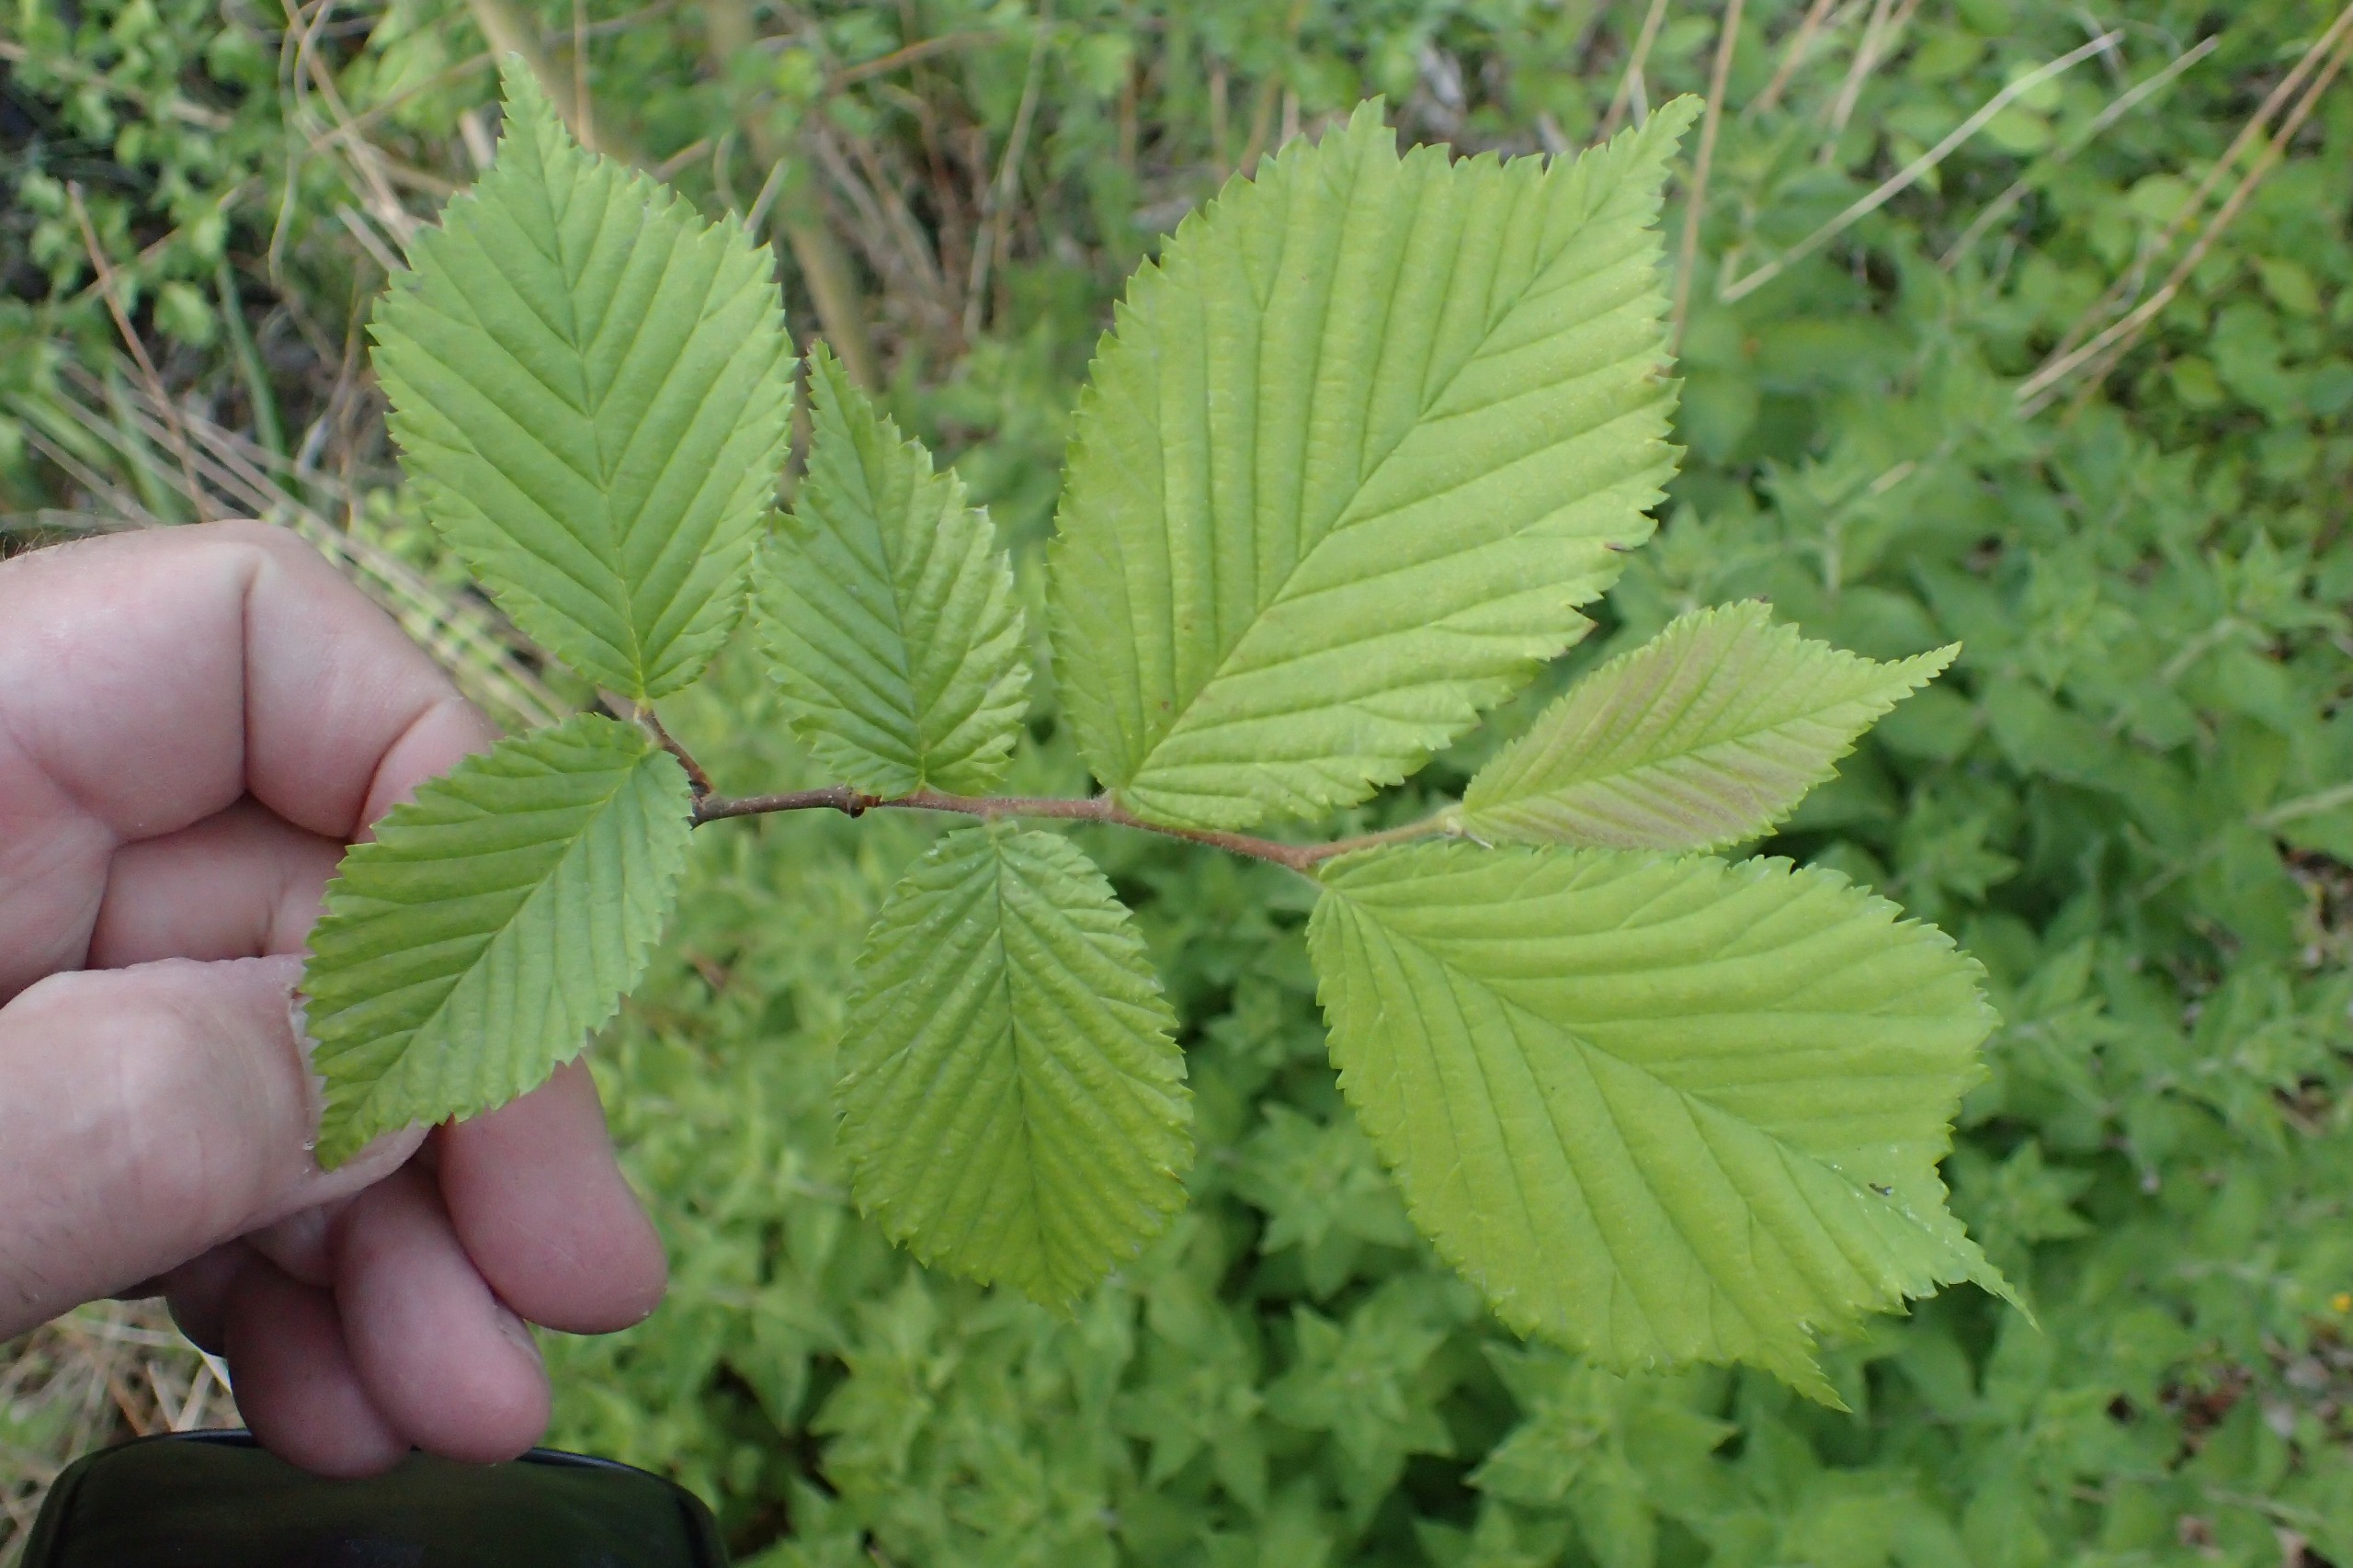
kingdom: Plantae
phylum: Tracheophyta
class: Magnoliopsida
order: Rosales
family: Ulmaceae
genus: Ulmus
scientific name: Ulmus glabra
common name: Skov-elm/storbladet elm
